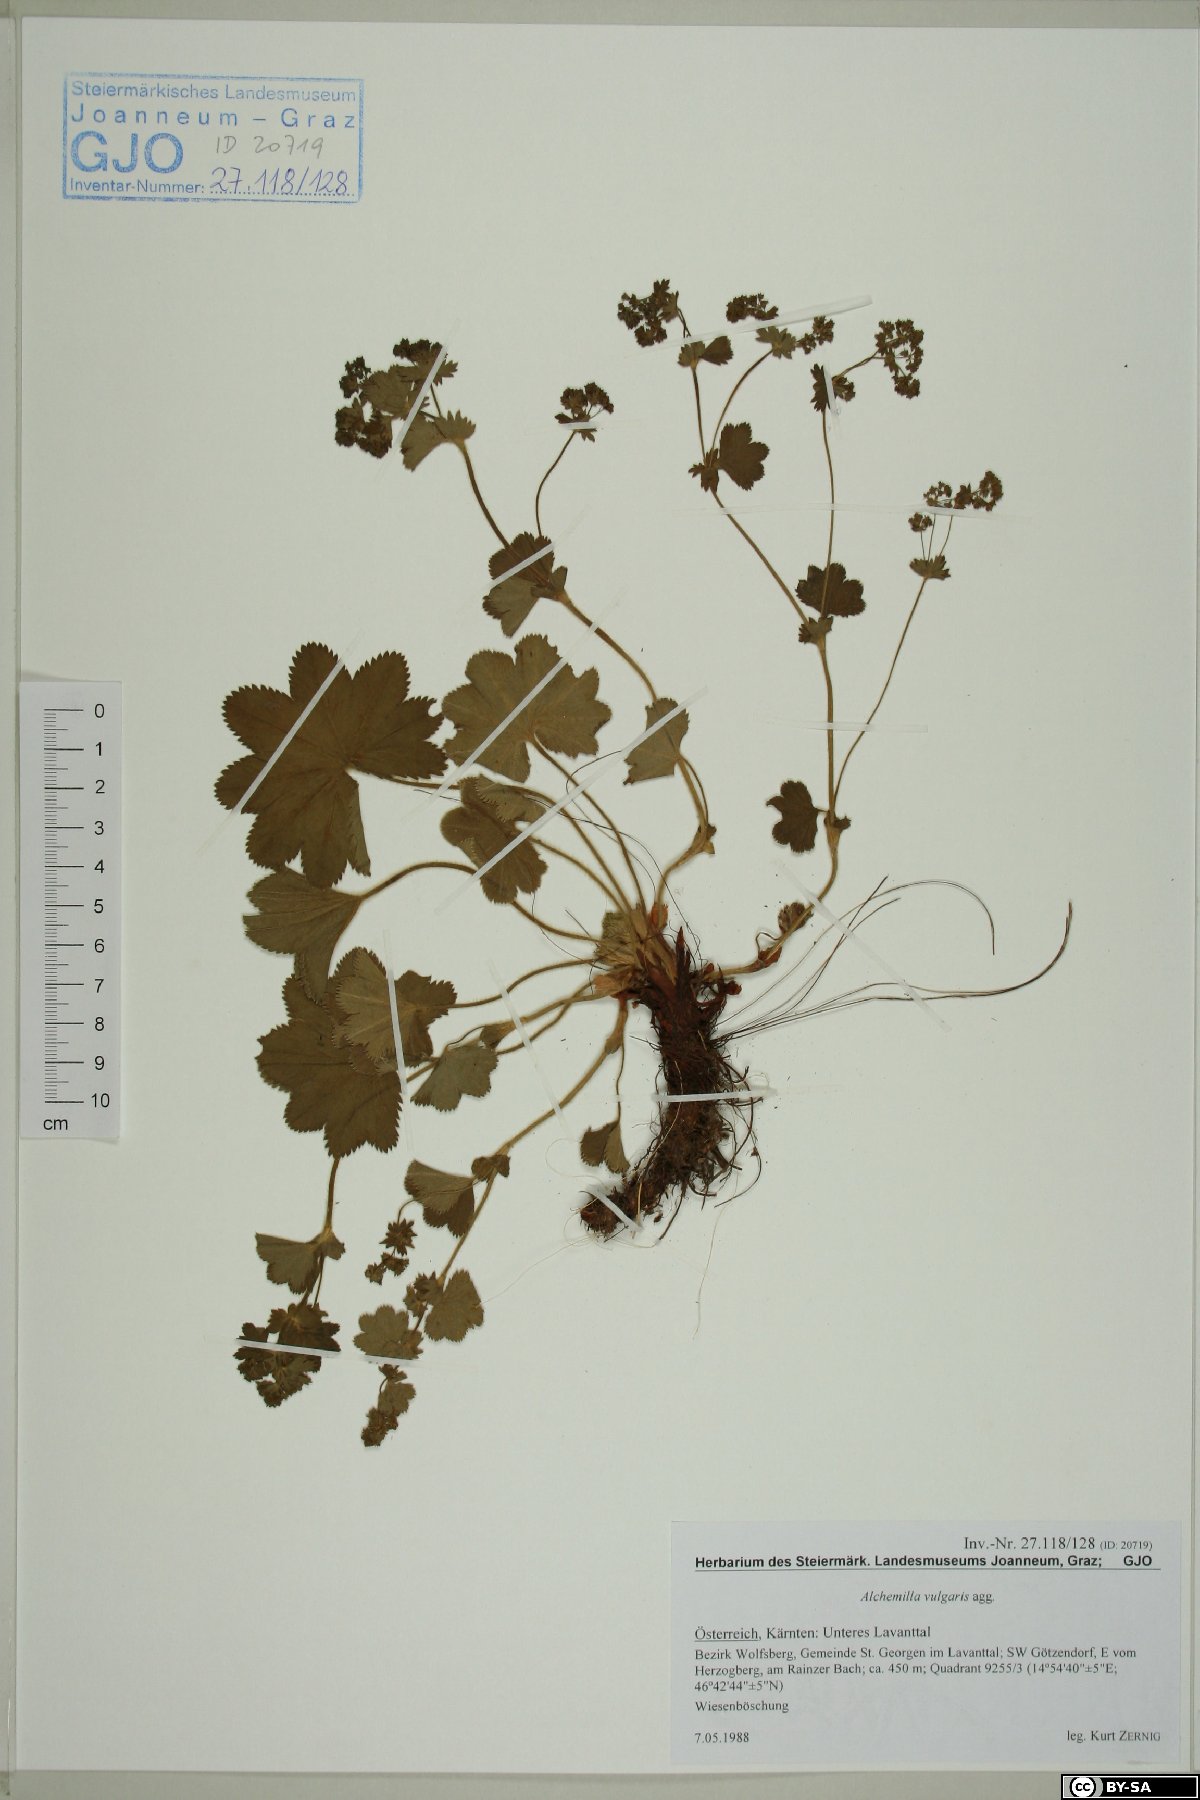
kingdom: Plantae
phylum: Tracheophyta
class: Magnoliopsida
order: Rosales
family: Rosaceae
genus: Alchemilla
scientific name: Alchemilla vulgaris
